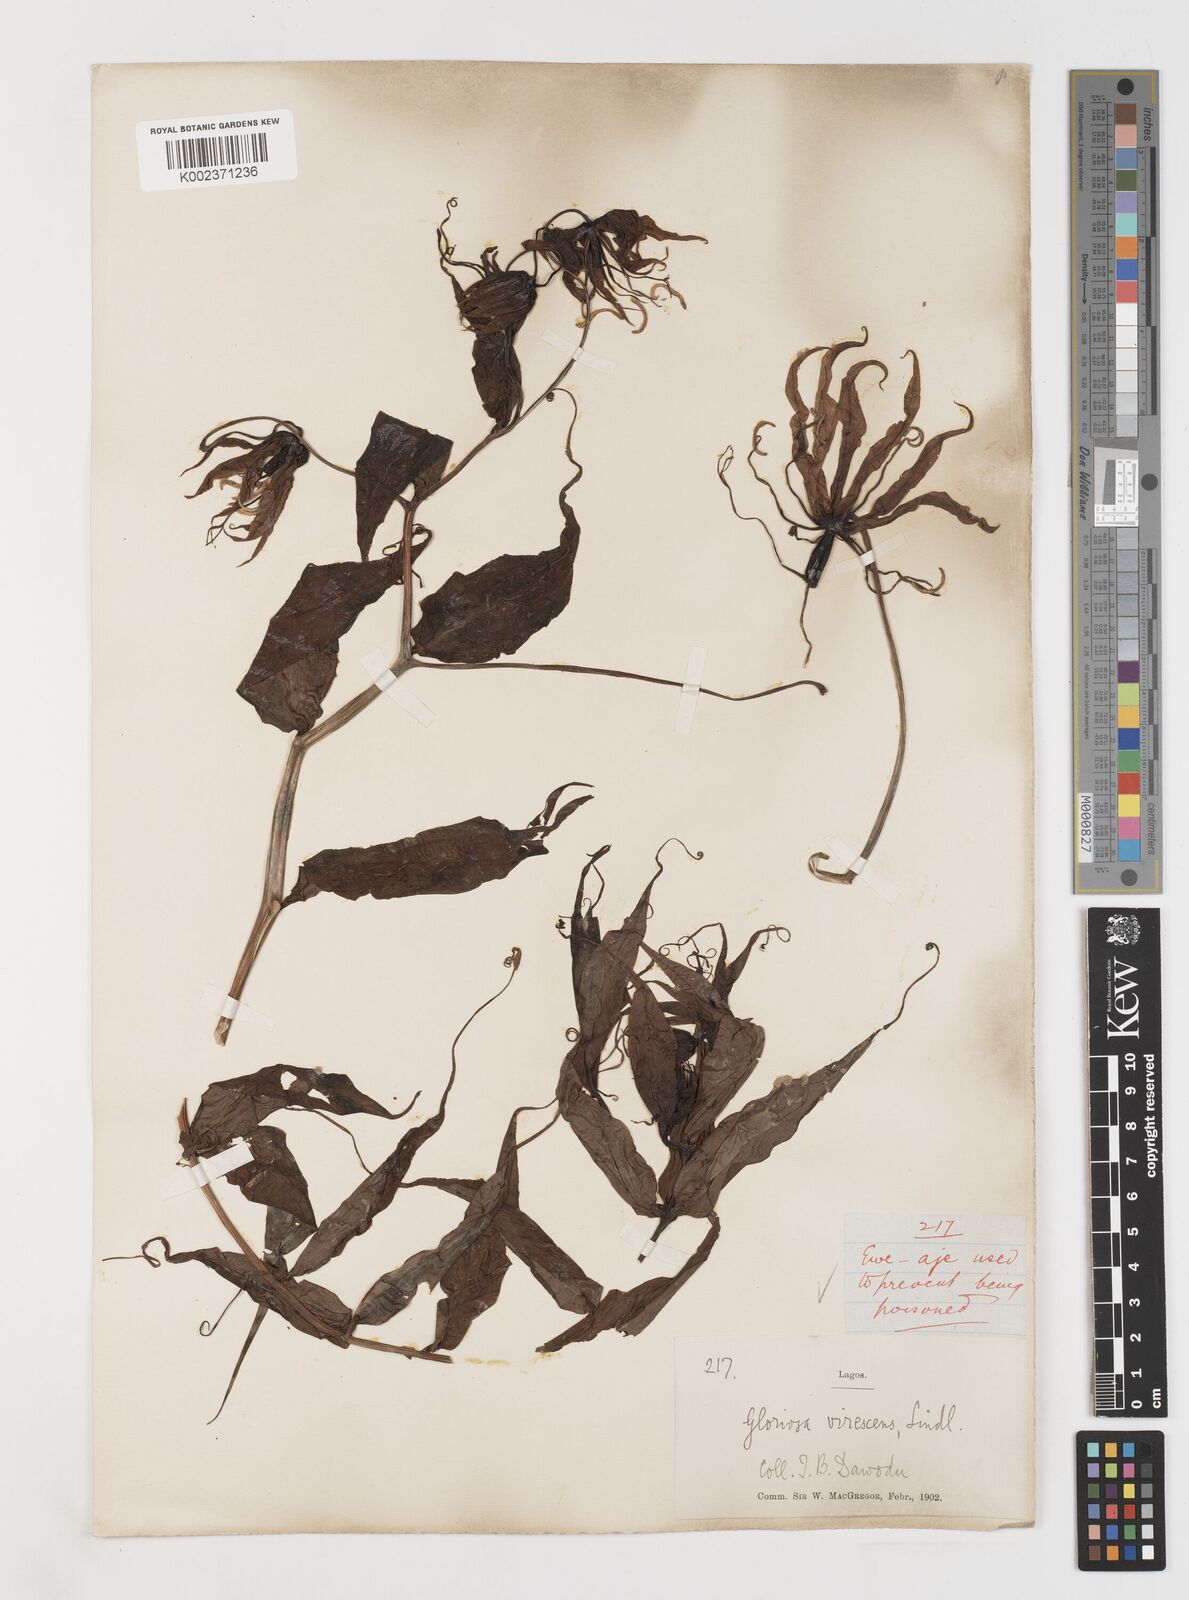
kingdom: Plantae
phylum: Tracheophyta
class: Liliopsida
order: Liliales
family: Colchicaceae
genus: Gloriosa
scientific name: Gloriosa superba
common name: Flame lily
